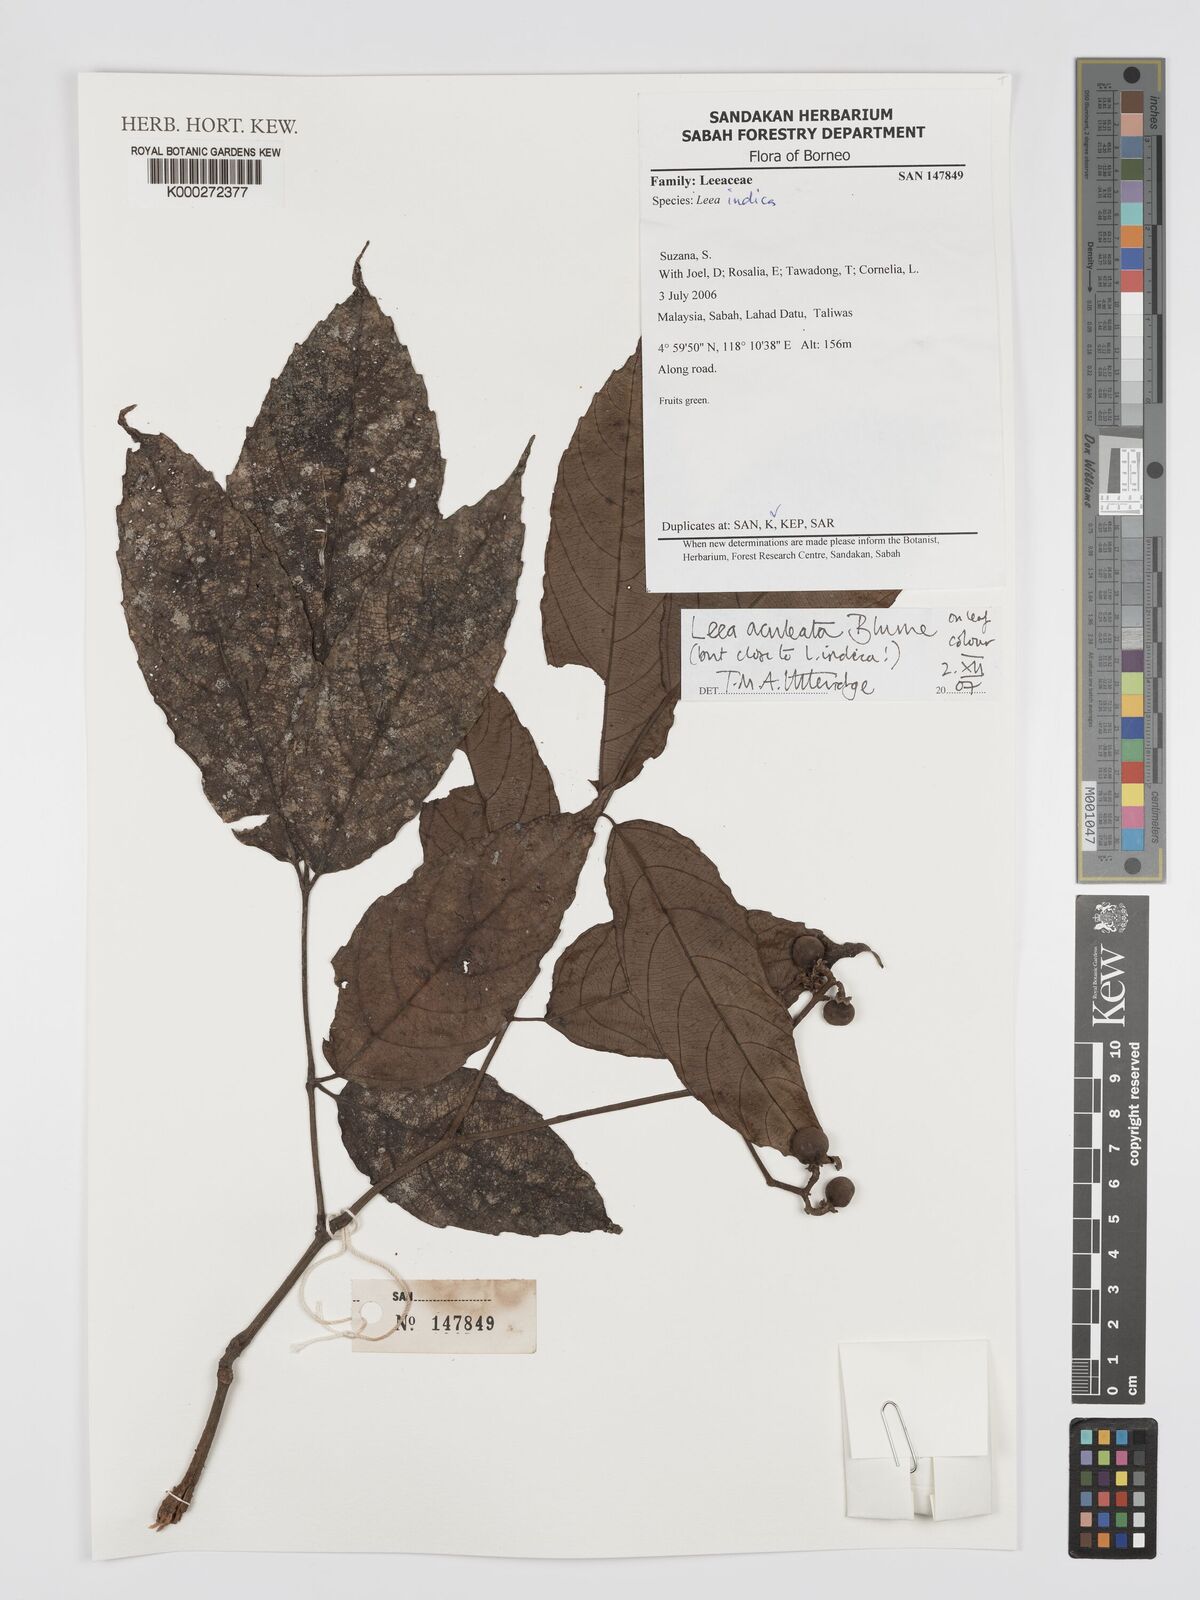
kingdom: Plantae
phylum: Tracheophyta
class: Magnoliopsida
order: Vitales
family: Vitaceae
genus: Leea
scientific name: Leea aculeata
